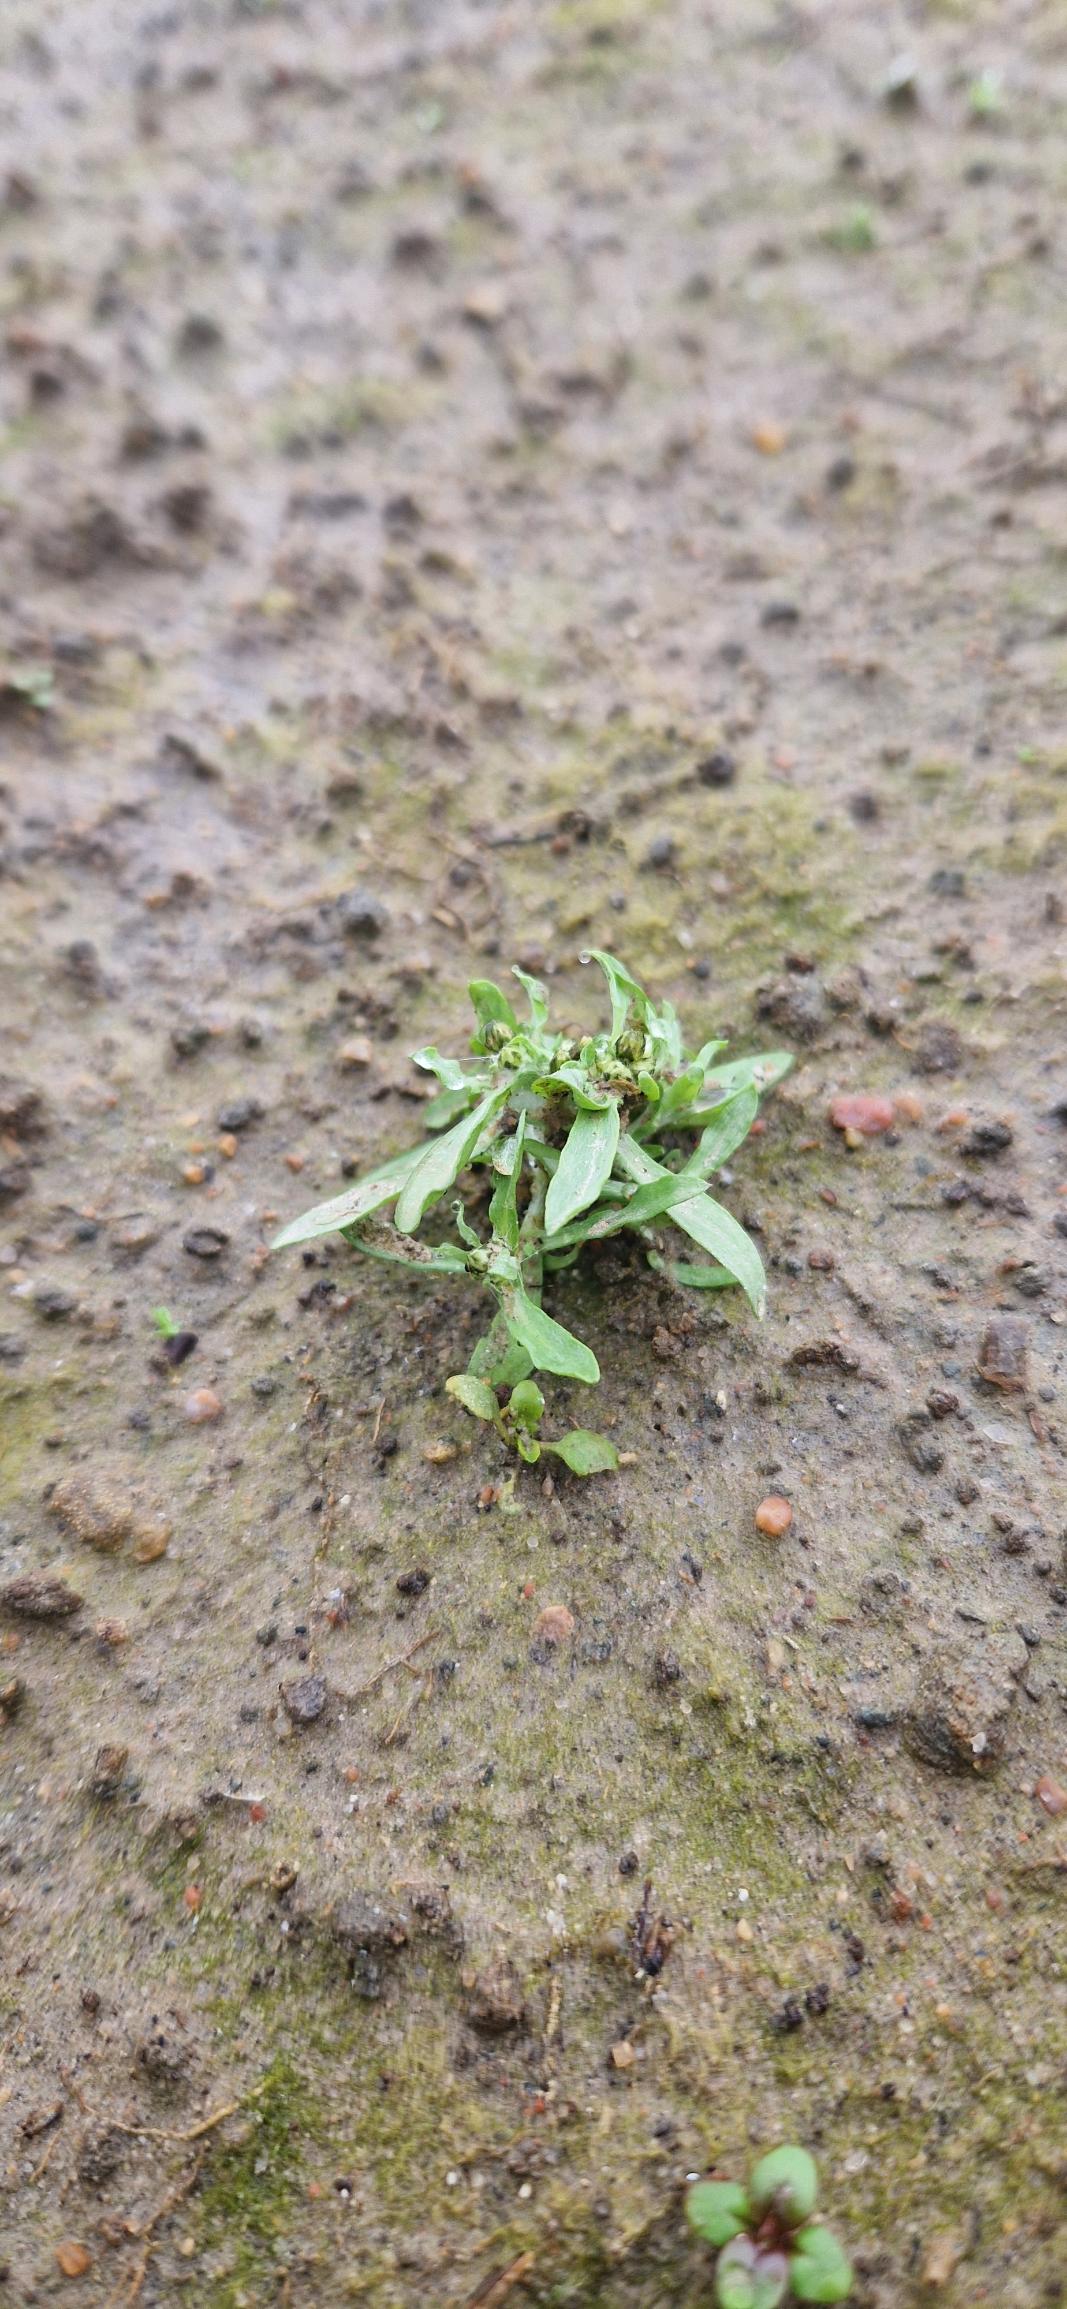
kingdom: Plantae
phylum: Tracheophyta
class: Magnoliopsida
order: Asterales
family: Asteraceae
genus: Gnaphalium
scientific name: Gnaphalium uliginosum
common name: Sump-evighedsblomst
